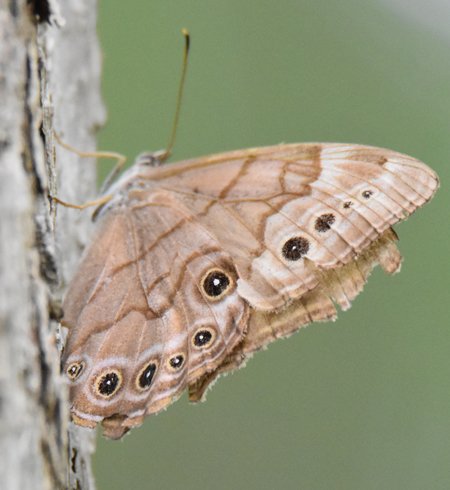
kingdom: Animalia
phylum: Arthropoda
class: Insecta
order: Lepidoptera
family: Nymphalidae
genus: Lethe
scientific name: Lethe anthedon
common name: Northern Pearly-Eye
